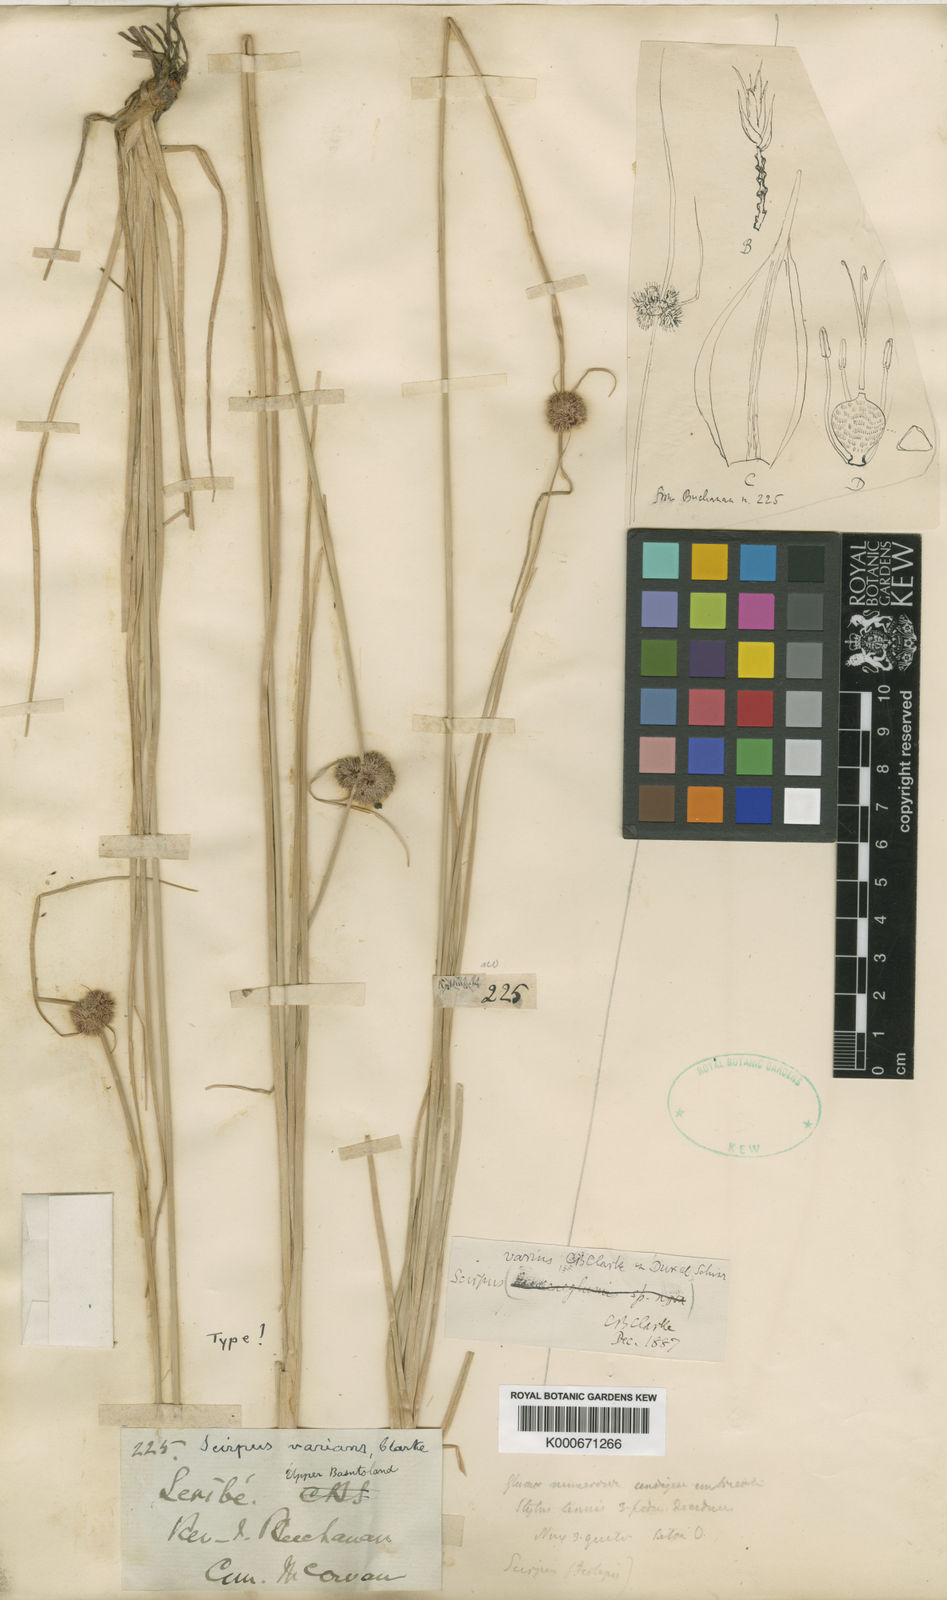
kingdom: Plantae
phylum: Tracheophyta
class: Liliopsida
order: Poales
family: Cyperaceae
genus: Scirpus
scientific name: Scirpus
